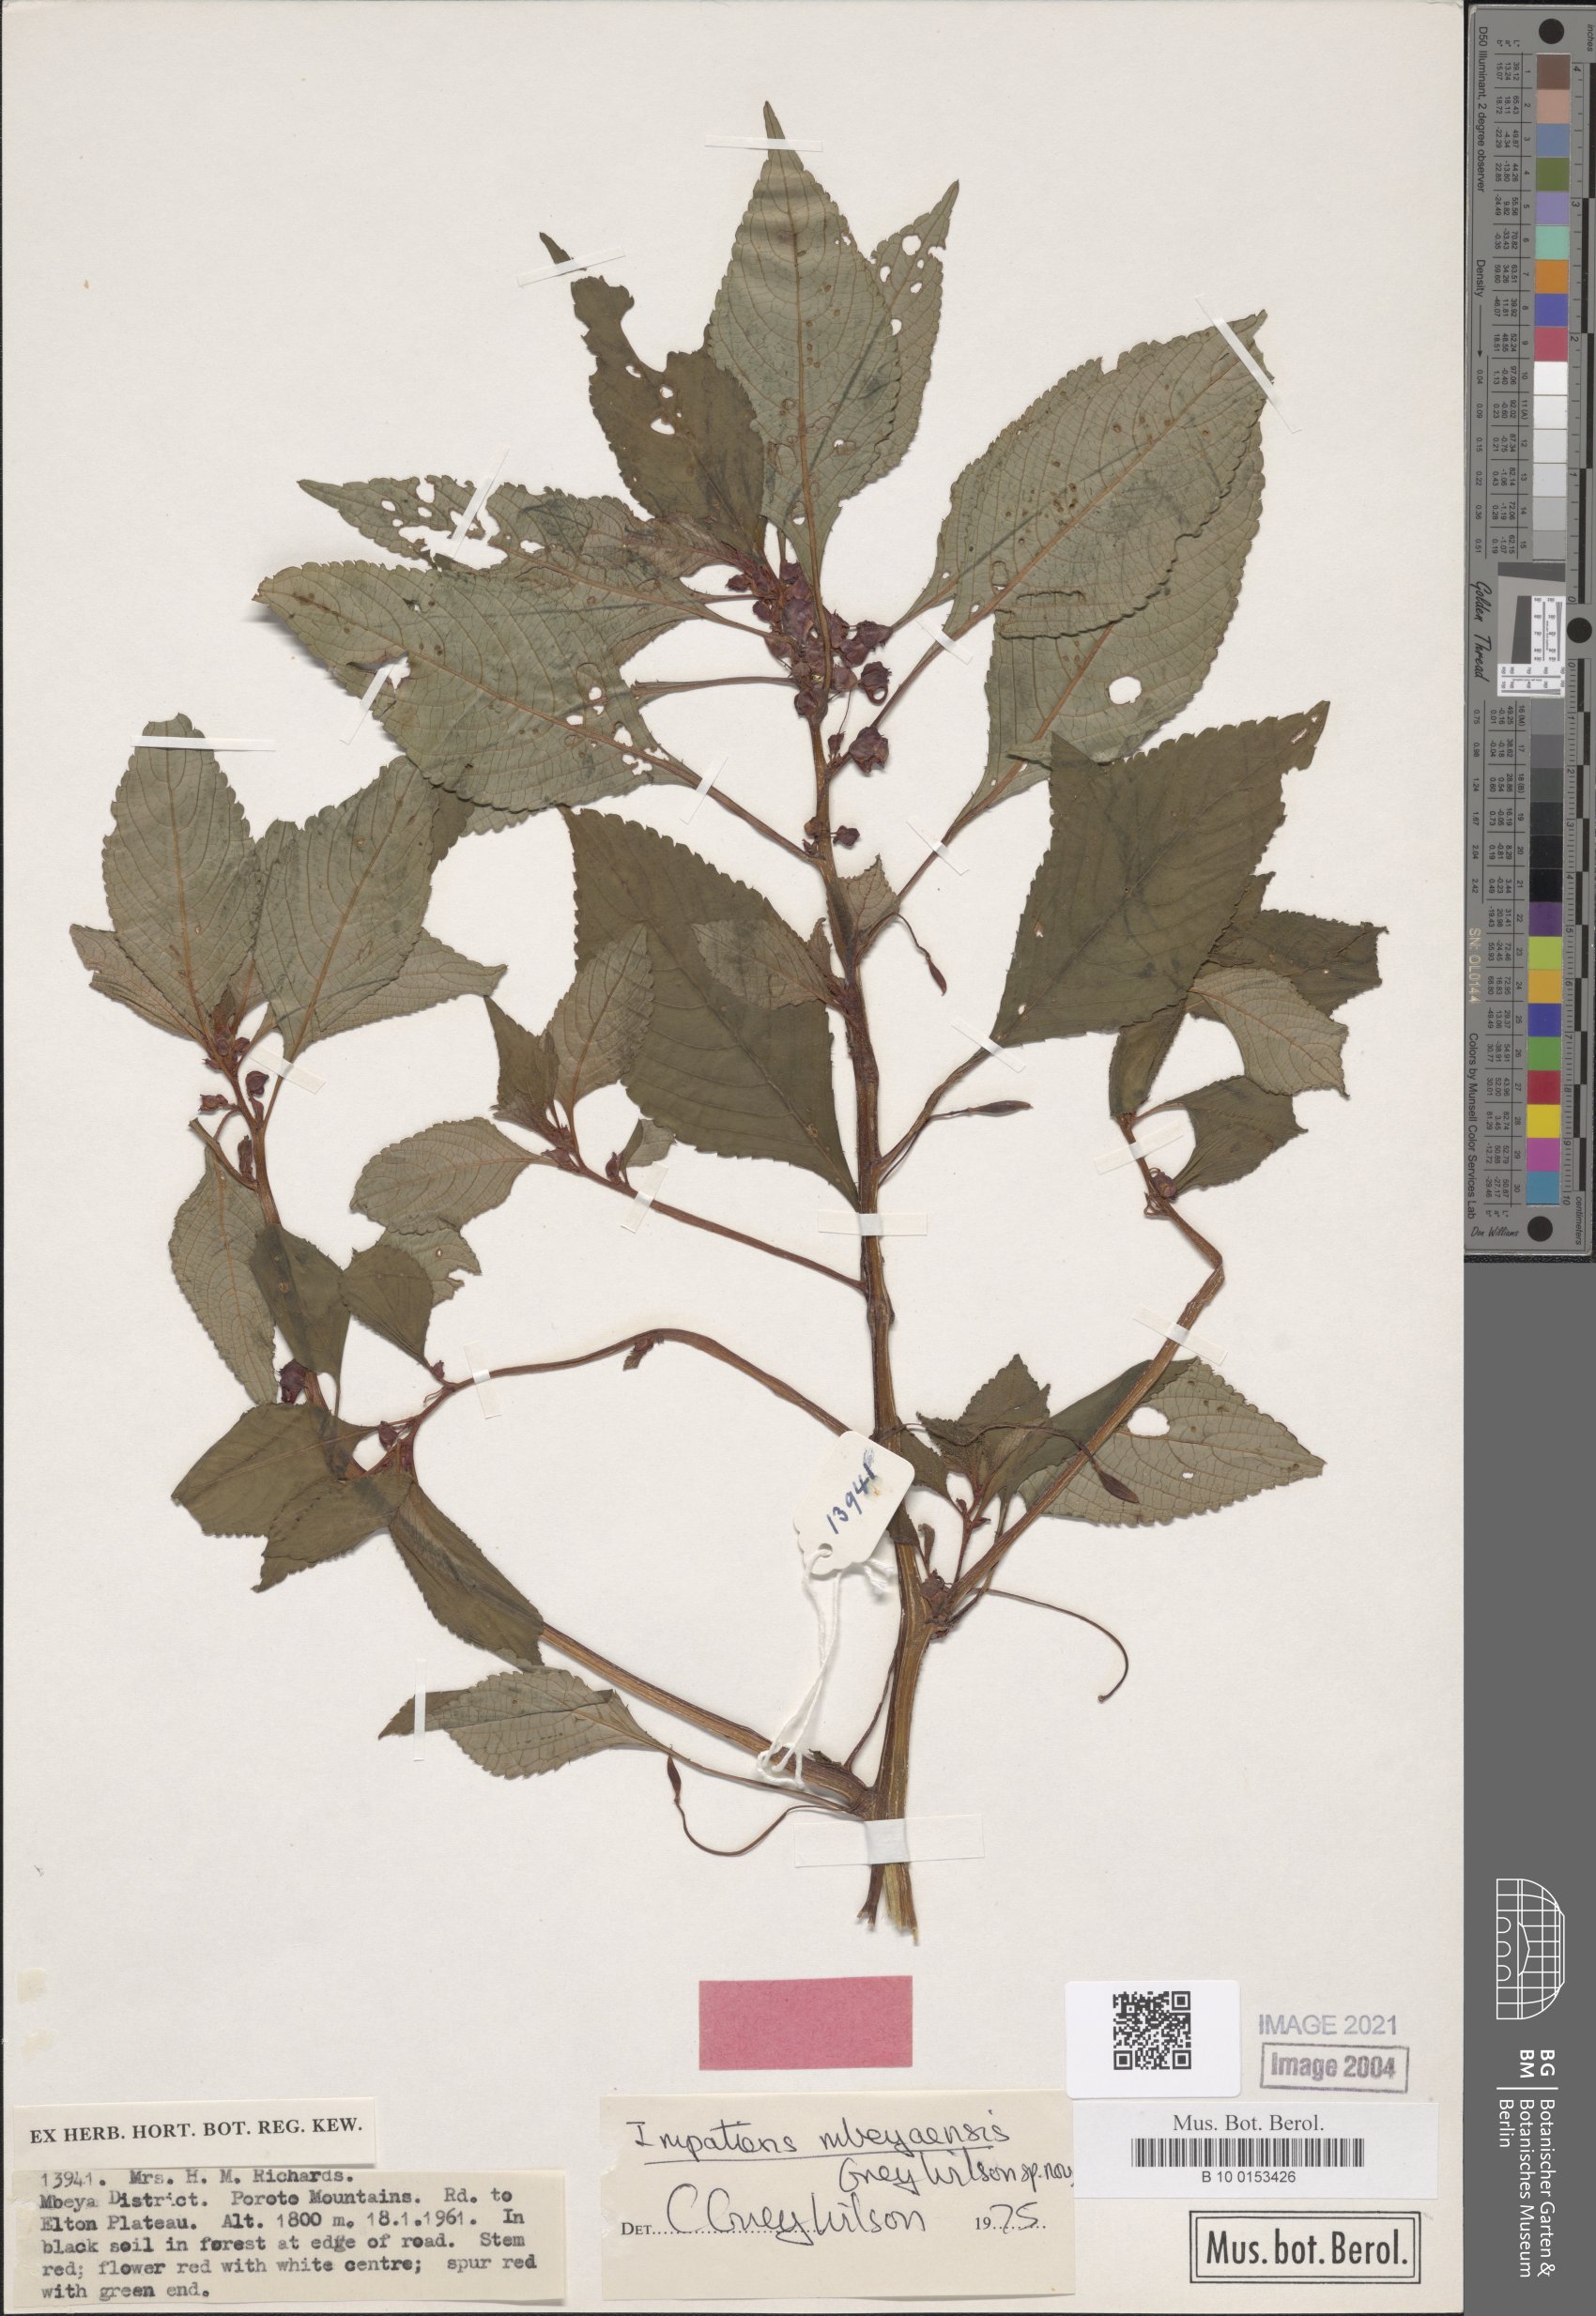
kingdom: Plantae
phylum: Tracheophyta
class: Magnoliopsida
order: Ericales
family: Balsaminaceae
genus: Impatiens
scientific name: Impatiens
